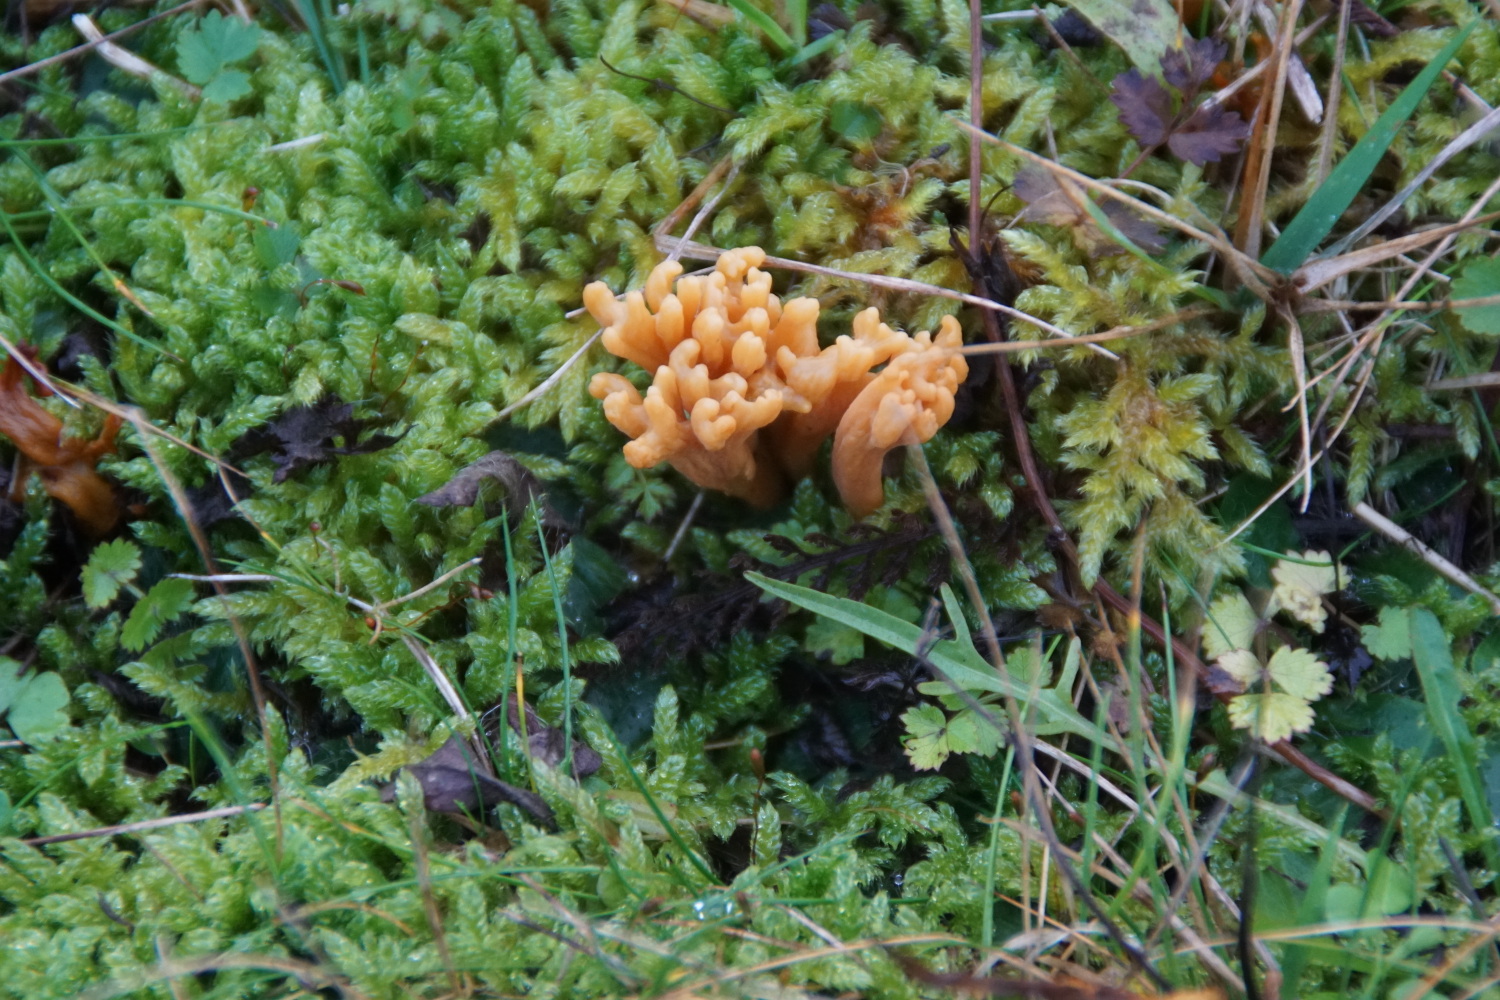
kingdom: Fungi
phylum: Basidiomycota
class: Agaricomycetes
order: Agaricales
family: Clavariaceae
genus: Clavulinopsis
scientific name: Clavulinopsis corniculata
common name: eng-køllesvamp
